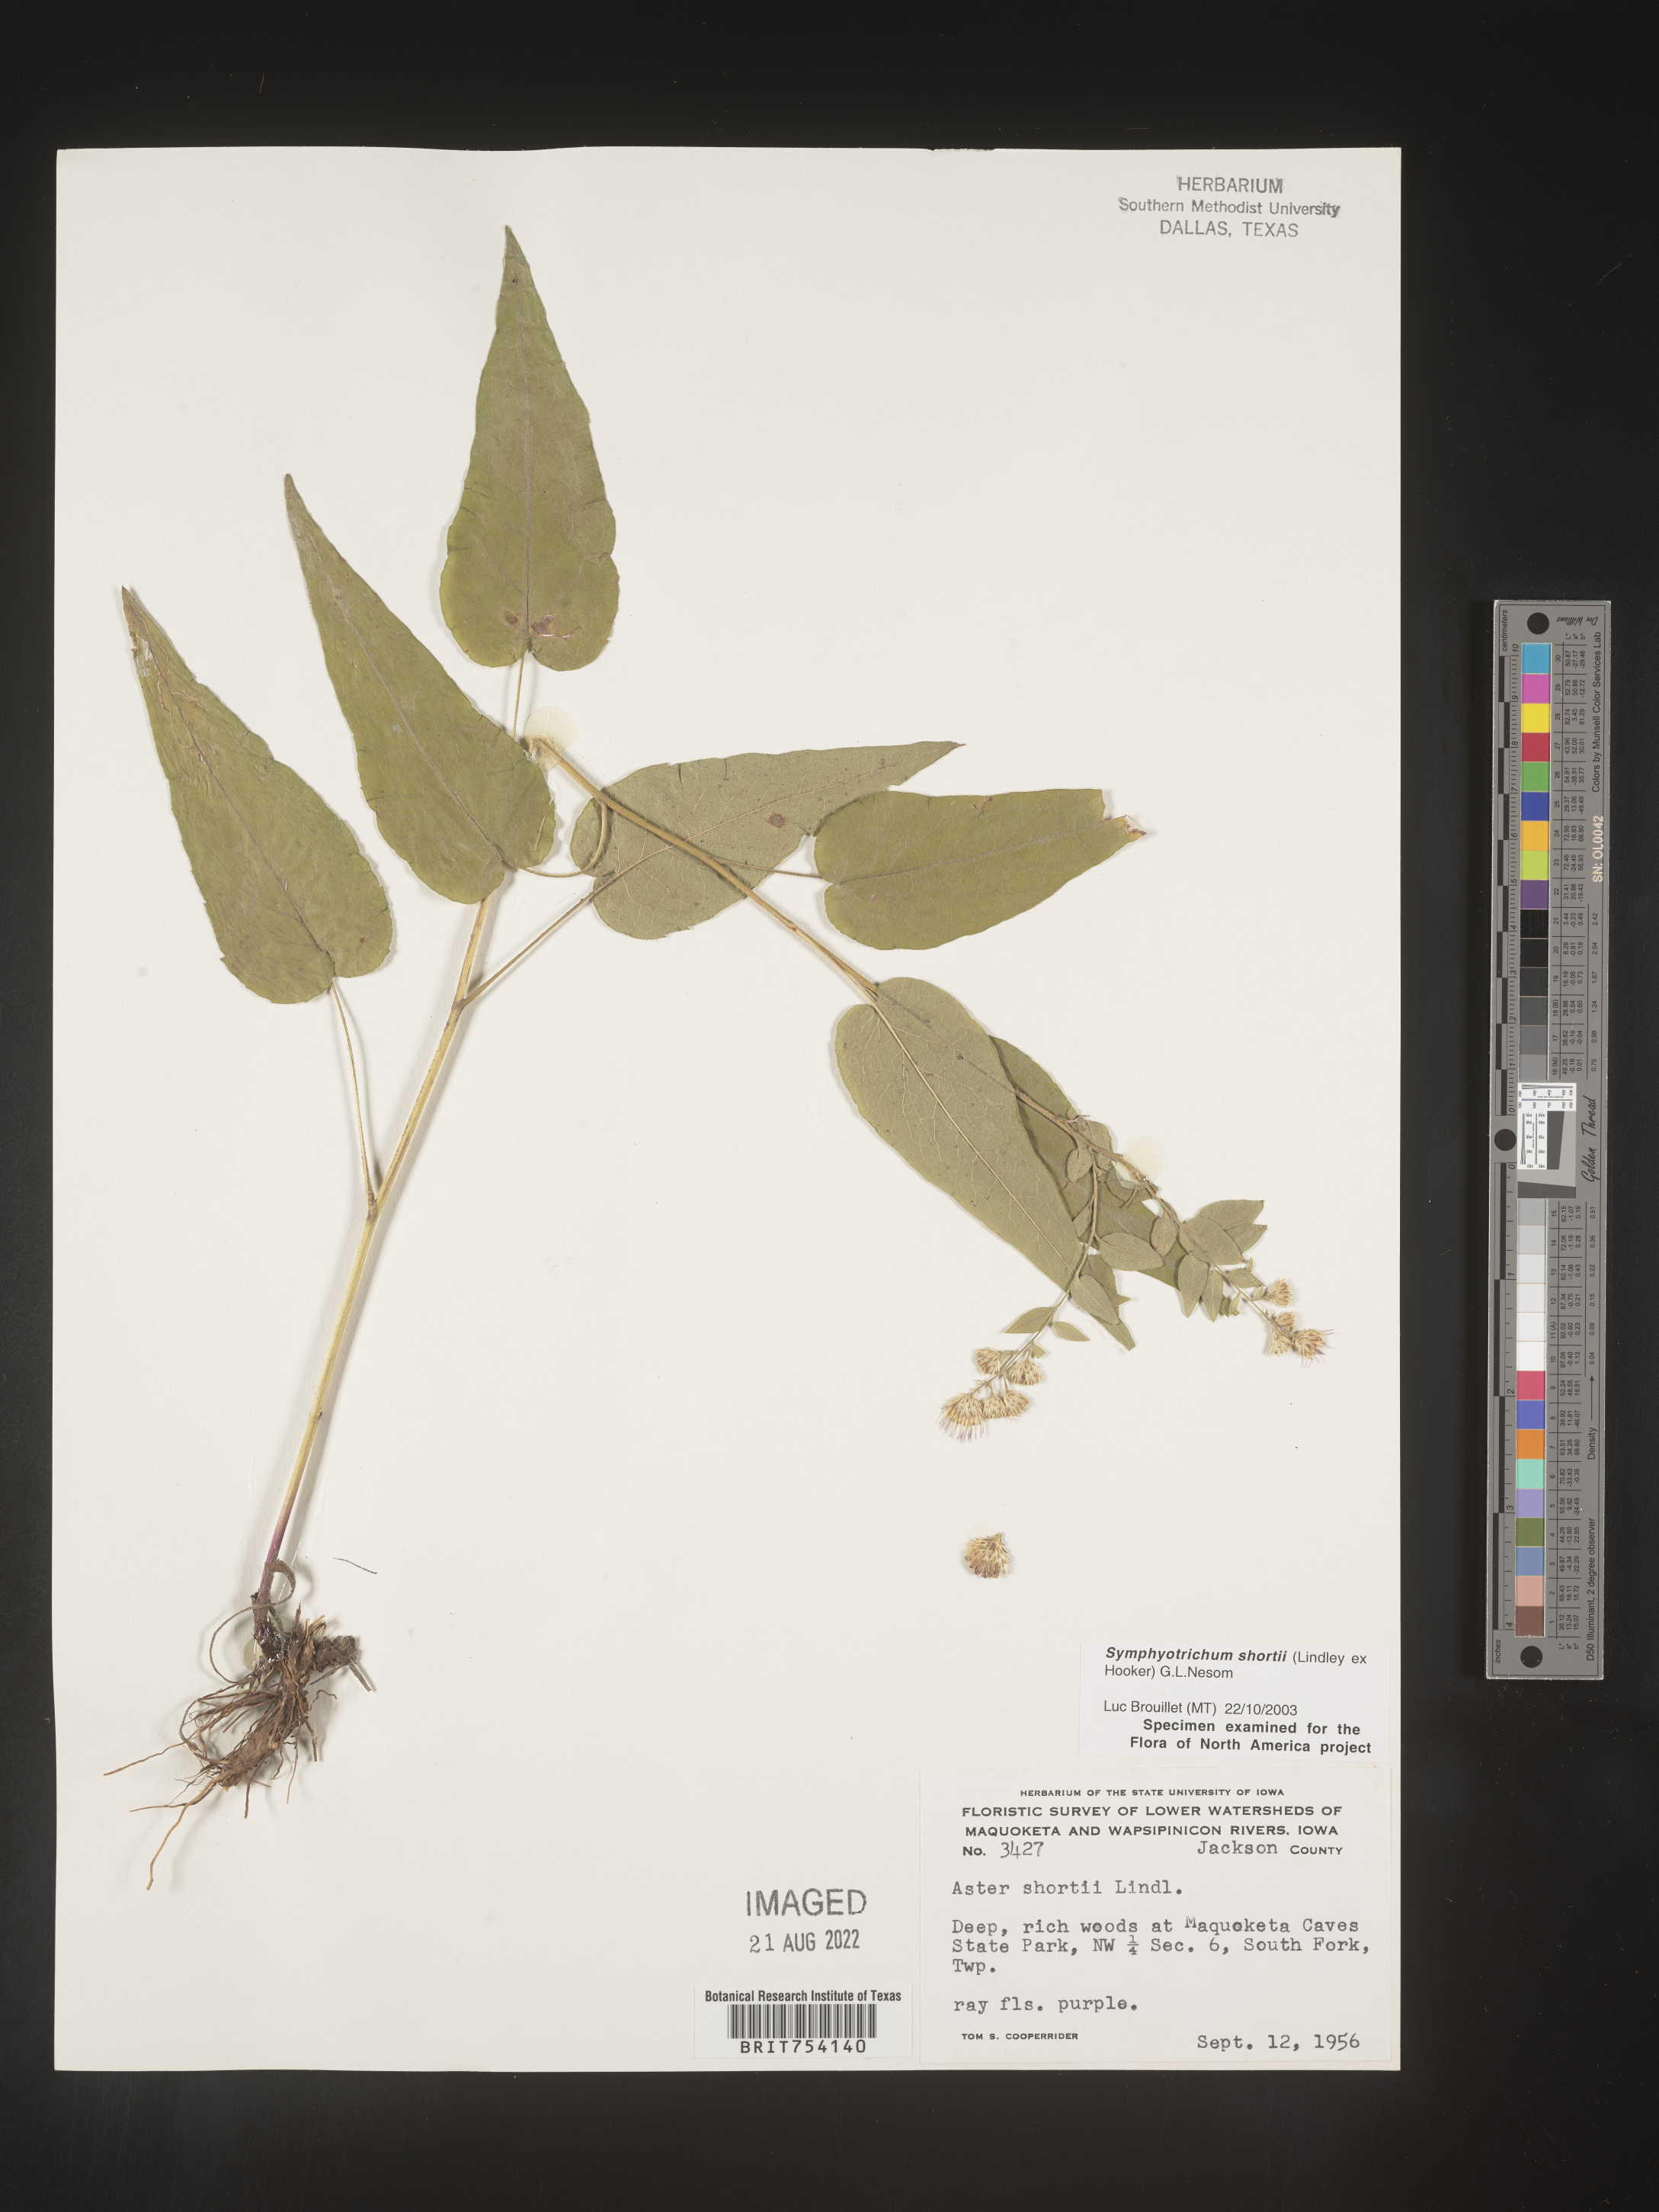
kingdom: Plantae
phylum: Tracheophyta
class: Magnoliopsida
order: Asterales
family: Asteraceae
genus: Symphyotrichum
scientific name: Symphyotrichum shortii
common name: Short's aster
